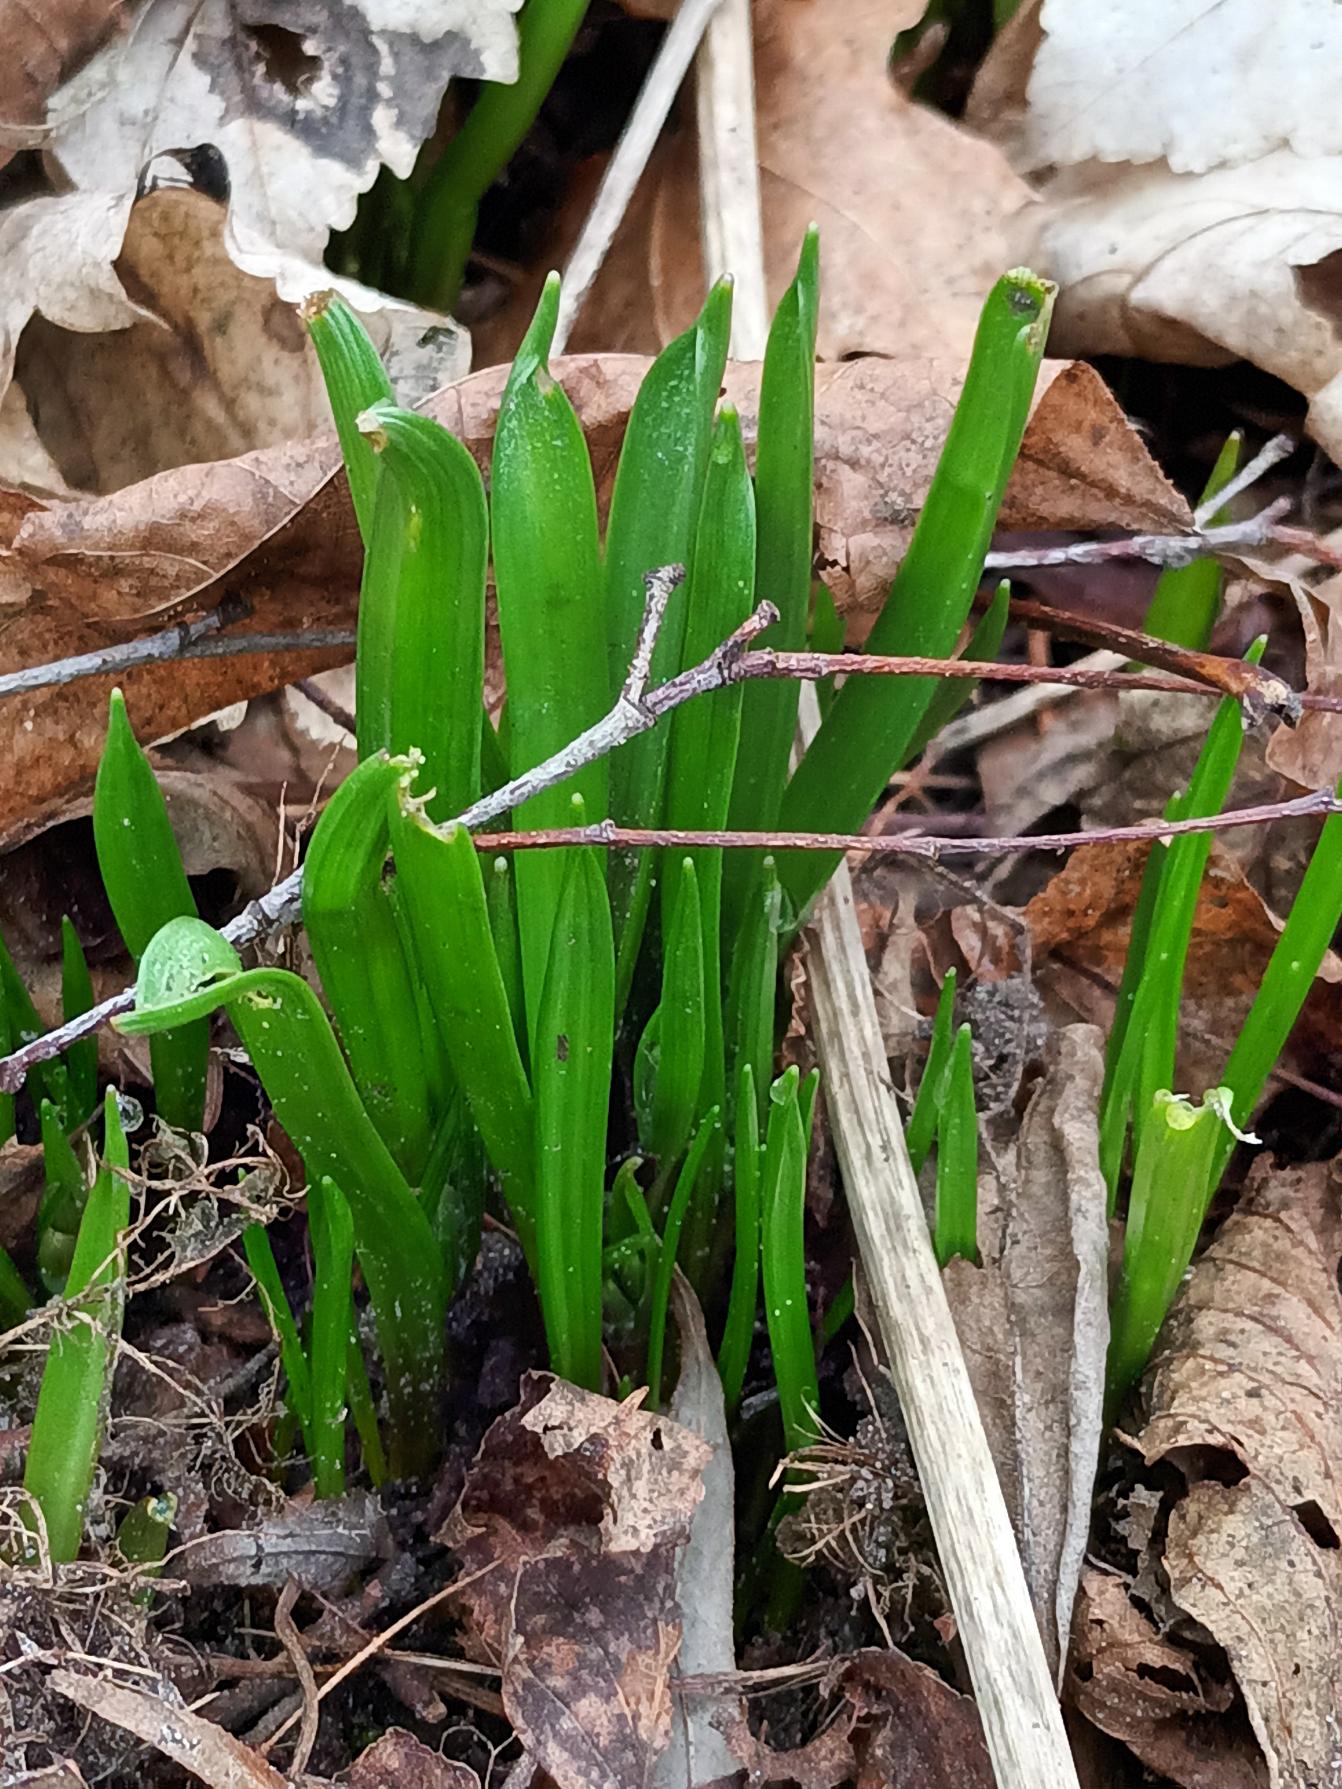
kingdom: Plantae
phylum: Tracheophyta
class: Liliopsida
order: Liliales
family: Liliaceae
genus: Gagea
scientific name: Gagea lutea
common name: Almindelig guldstjerne
